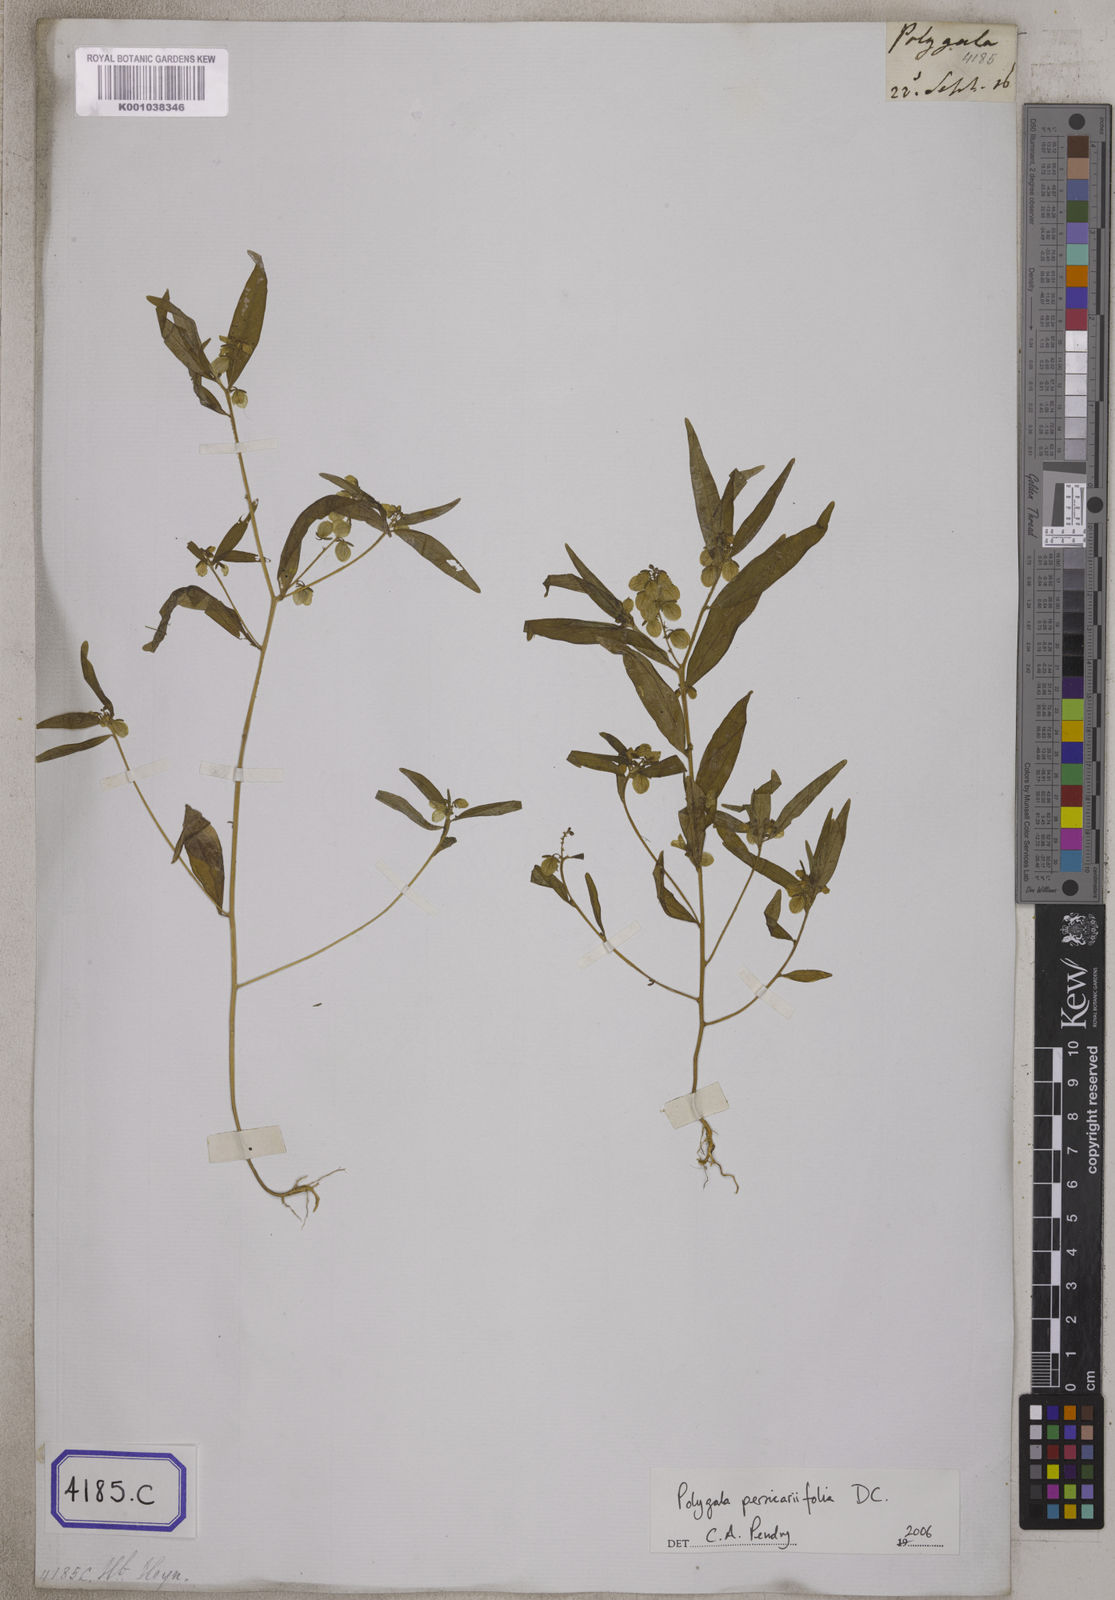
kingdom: Plantae
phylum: Tracheophyta
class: Magnoliopsida
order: Fabales
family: Polygalaceae
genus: Polygala
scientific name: Polygala
